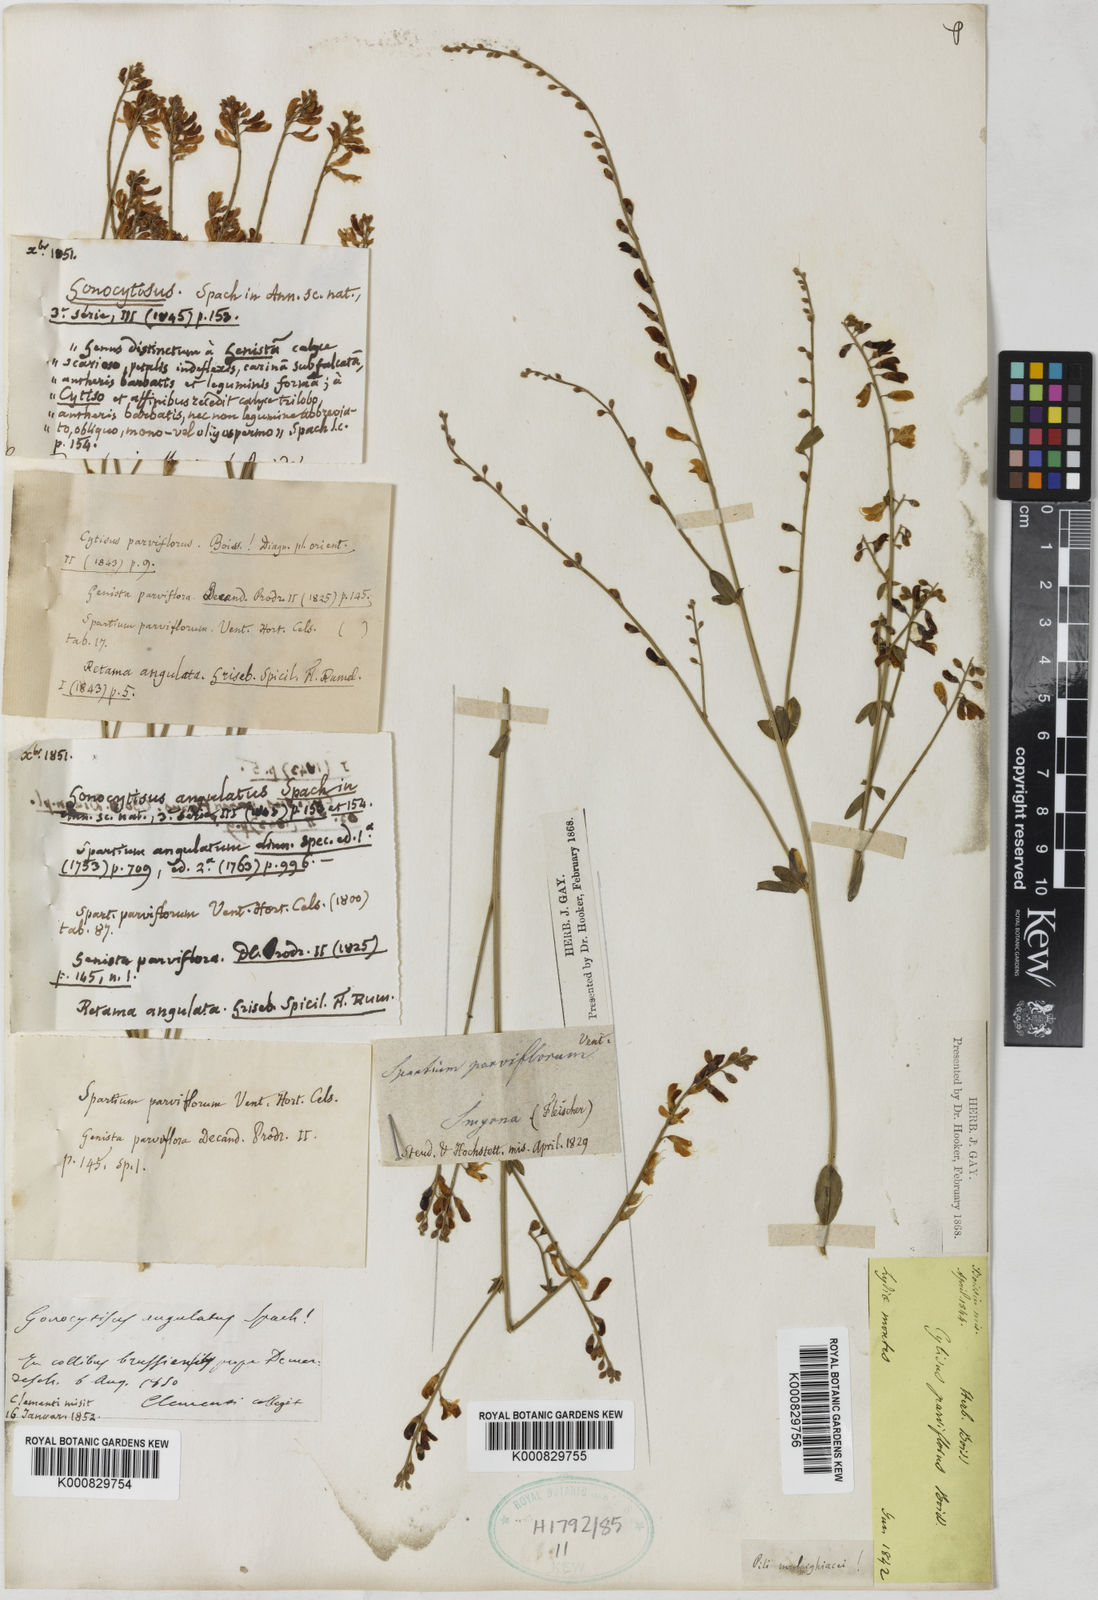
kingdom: Plantae
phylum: Tracheophyta
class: Magnoliopsida
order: Fabales
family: Fabaceae
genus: Gonocytisus
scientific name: Gonocytisus angulatus
